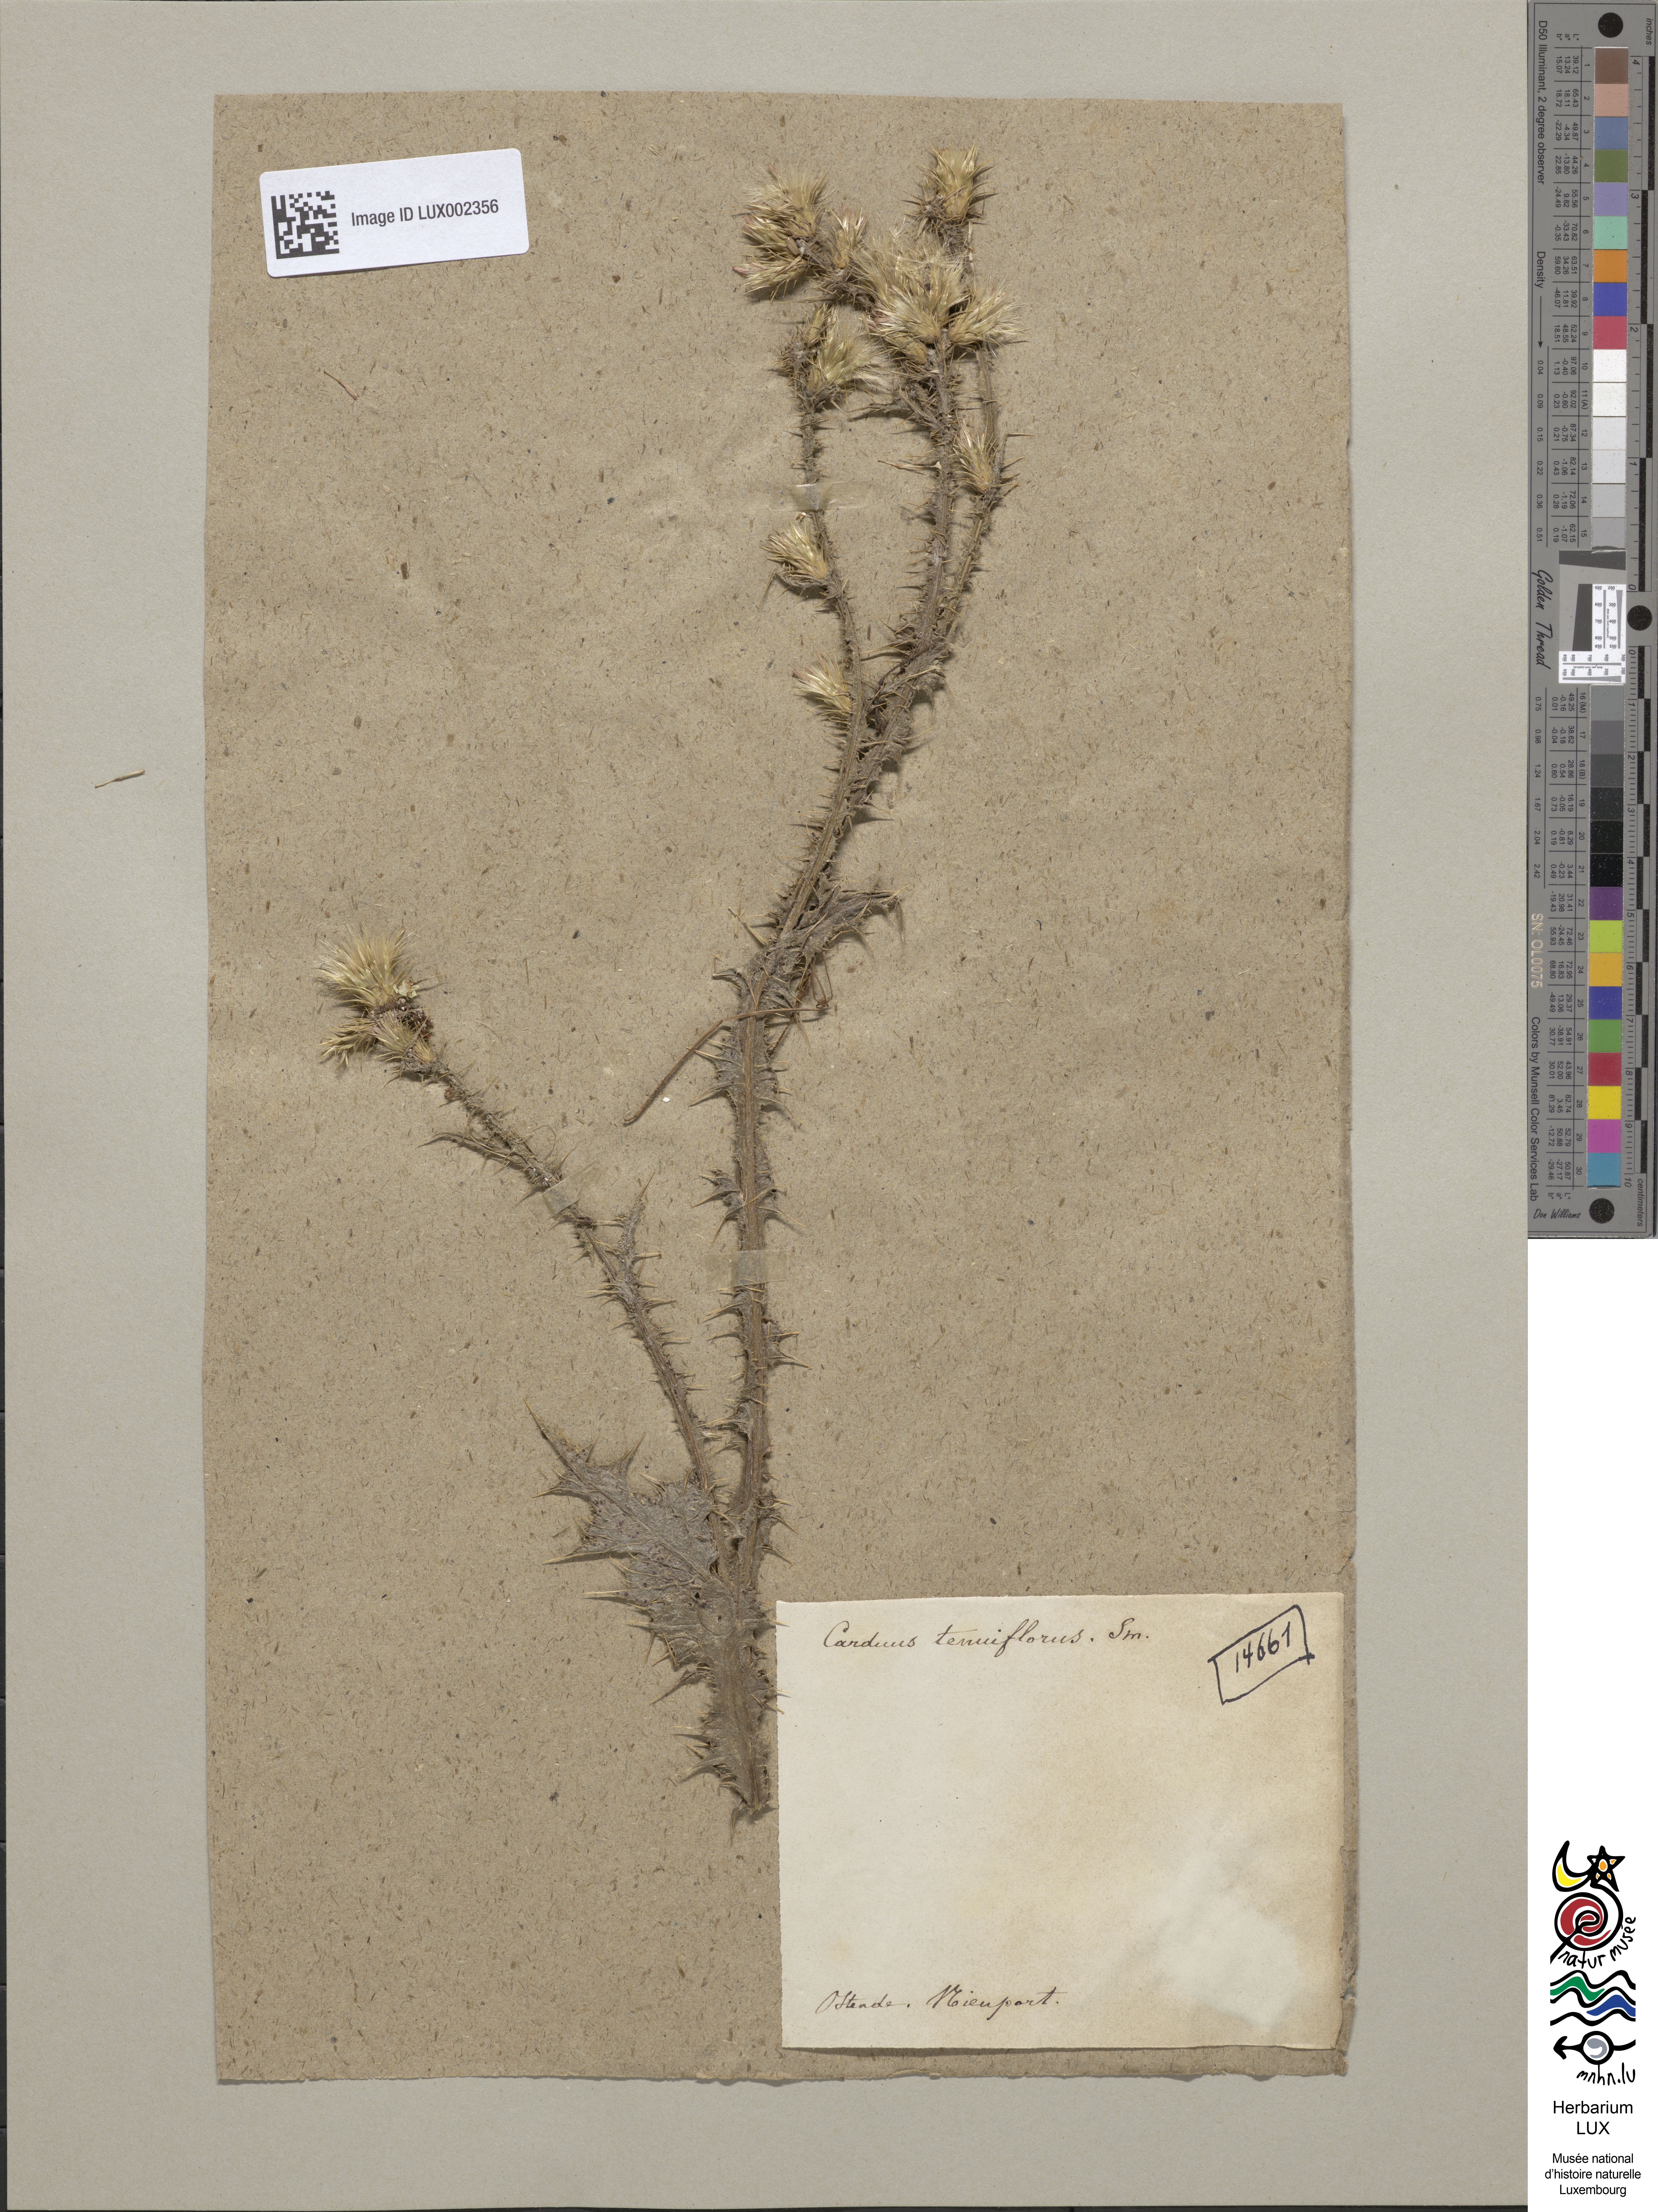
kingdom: Plantae
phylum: Tracheophyta
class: Magnoliopsida
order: Asterales
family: Asteraceae
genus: Carduus
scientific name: Carduus tenuiflorus
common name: Slender thistle
